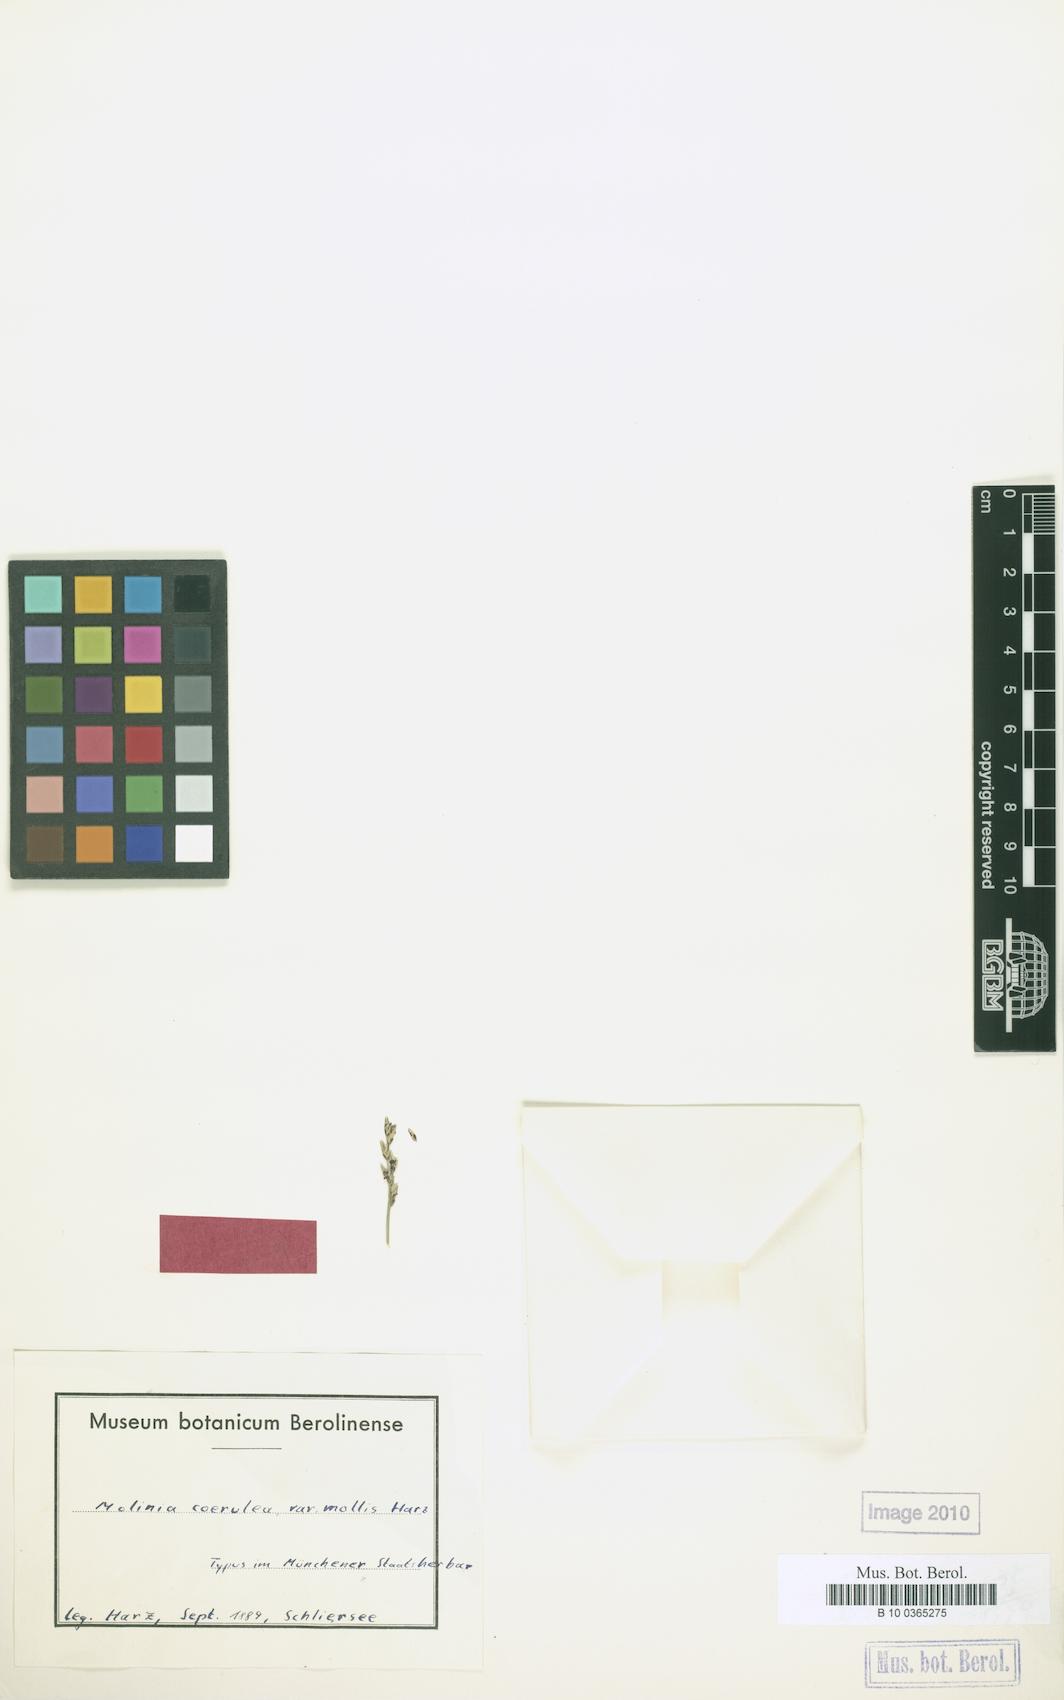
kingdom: Plantae
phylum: Tracheophyta
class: Liliopsida
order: Poales
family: Poaceae
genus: Molinia
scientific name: Molinia caerulea
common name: Purple moor-grass
